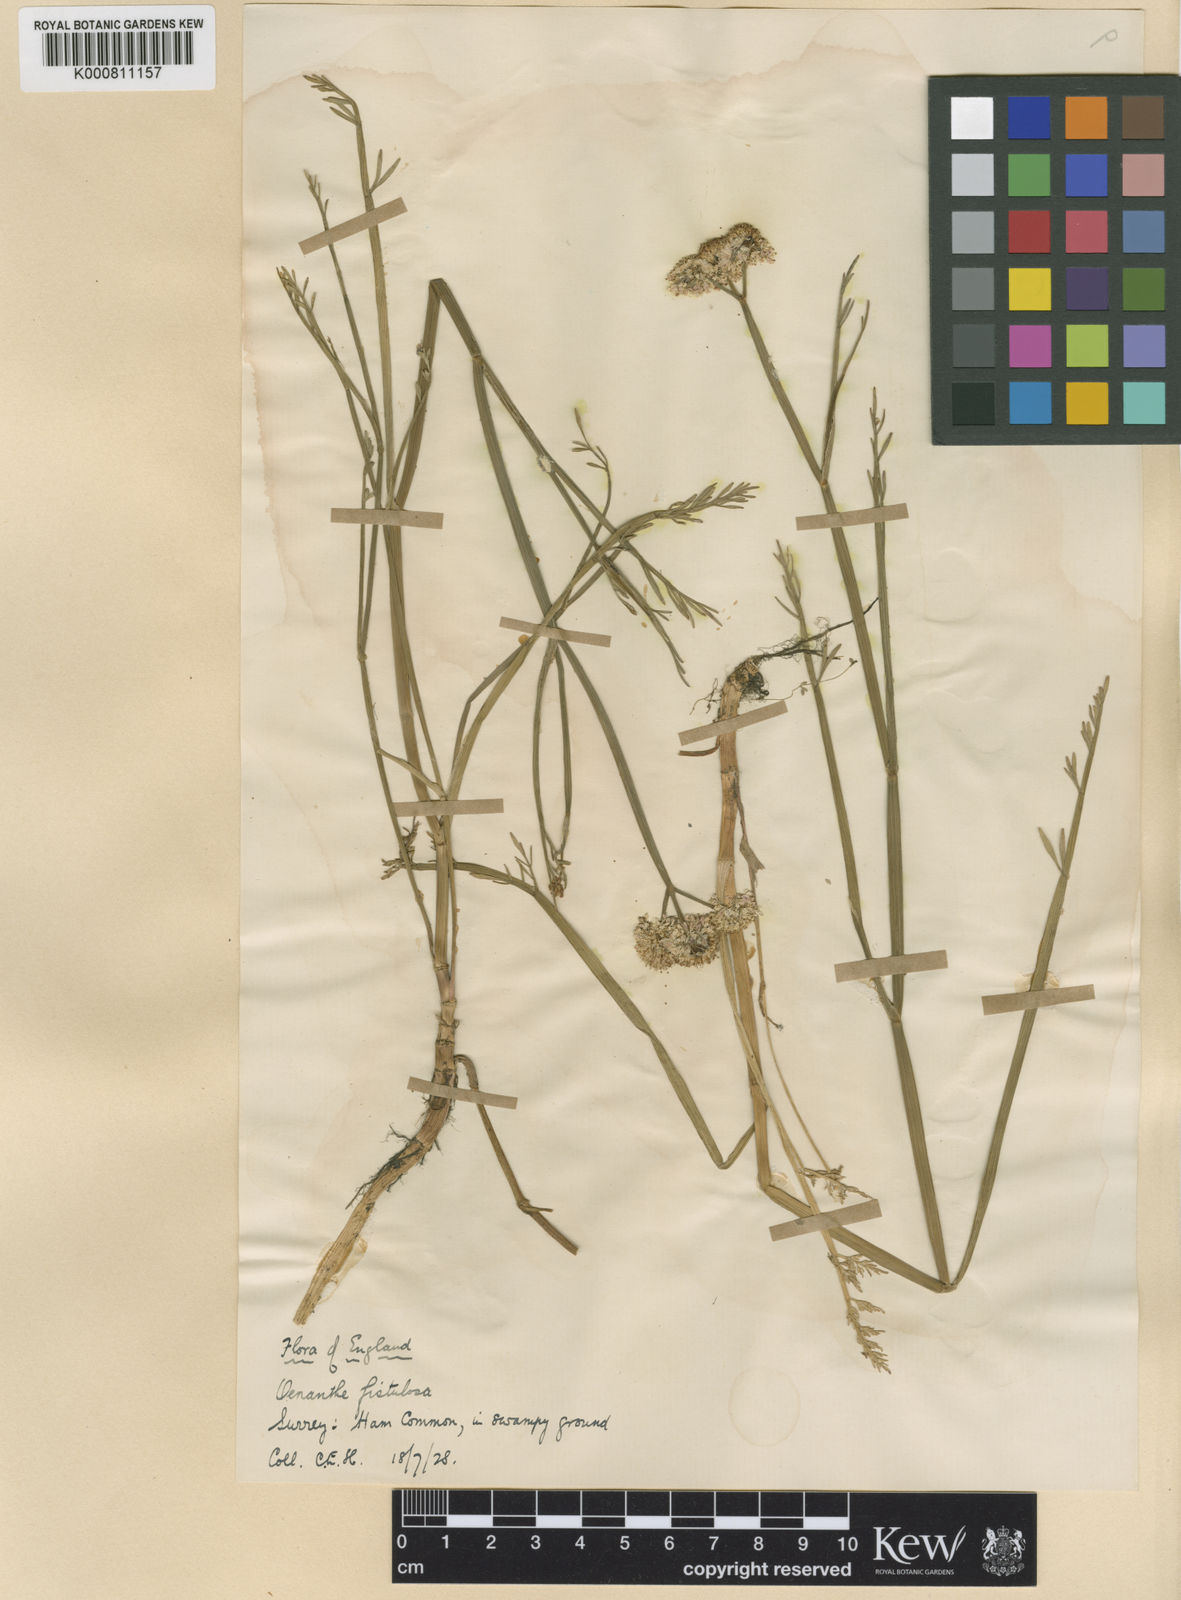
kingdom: Plantae
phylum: Tracheophyta
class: Magnoliopsida
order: Apiales
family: Apiaceae
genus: Oenanthe
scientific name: Oenanthe fistulosa
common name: Tubular water-dropwort
